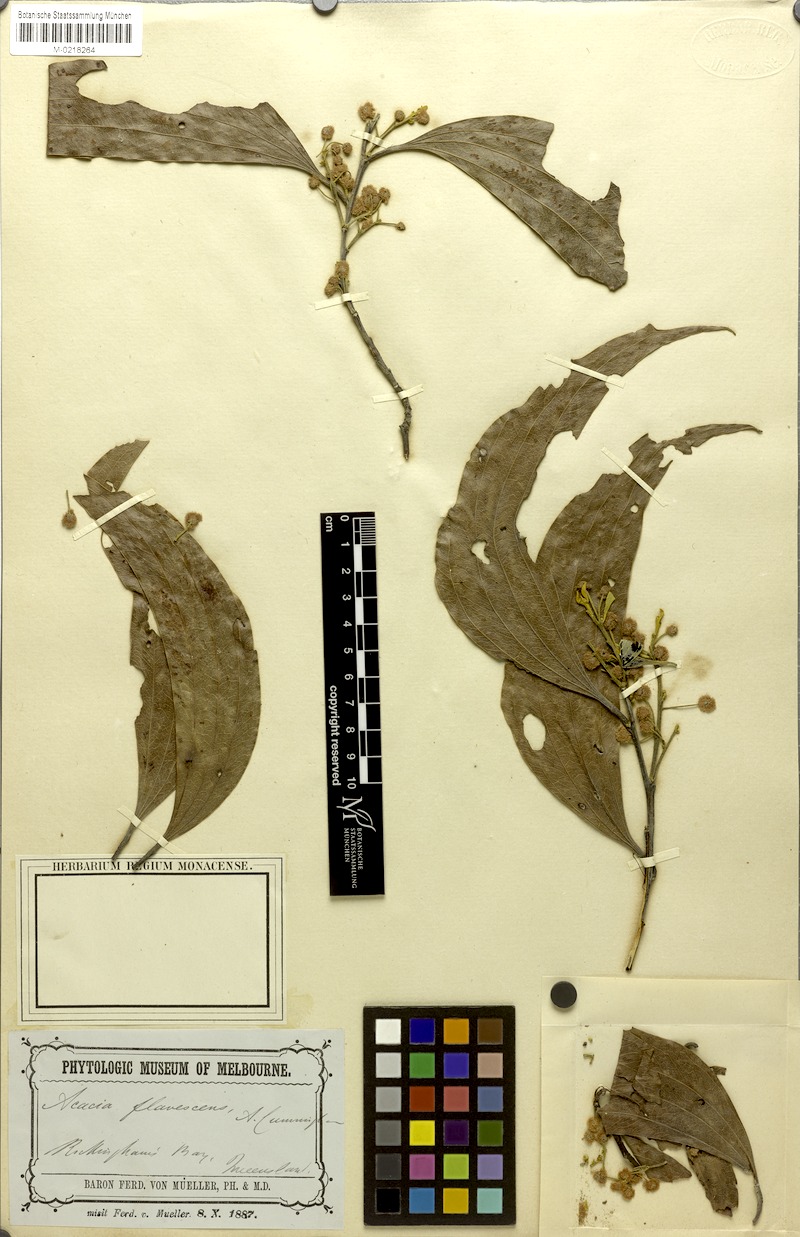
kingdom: Plantae
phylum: Tracheophyta
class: Magnoliopsida
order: Fabales
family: Fabaceae
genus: Acacia
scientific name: Acacia flavescens
